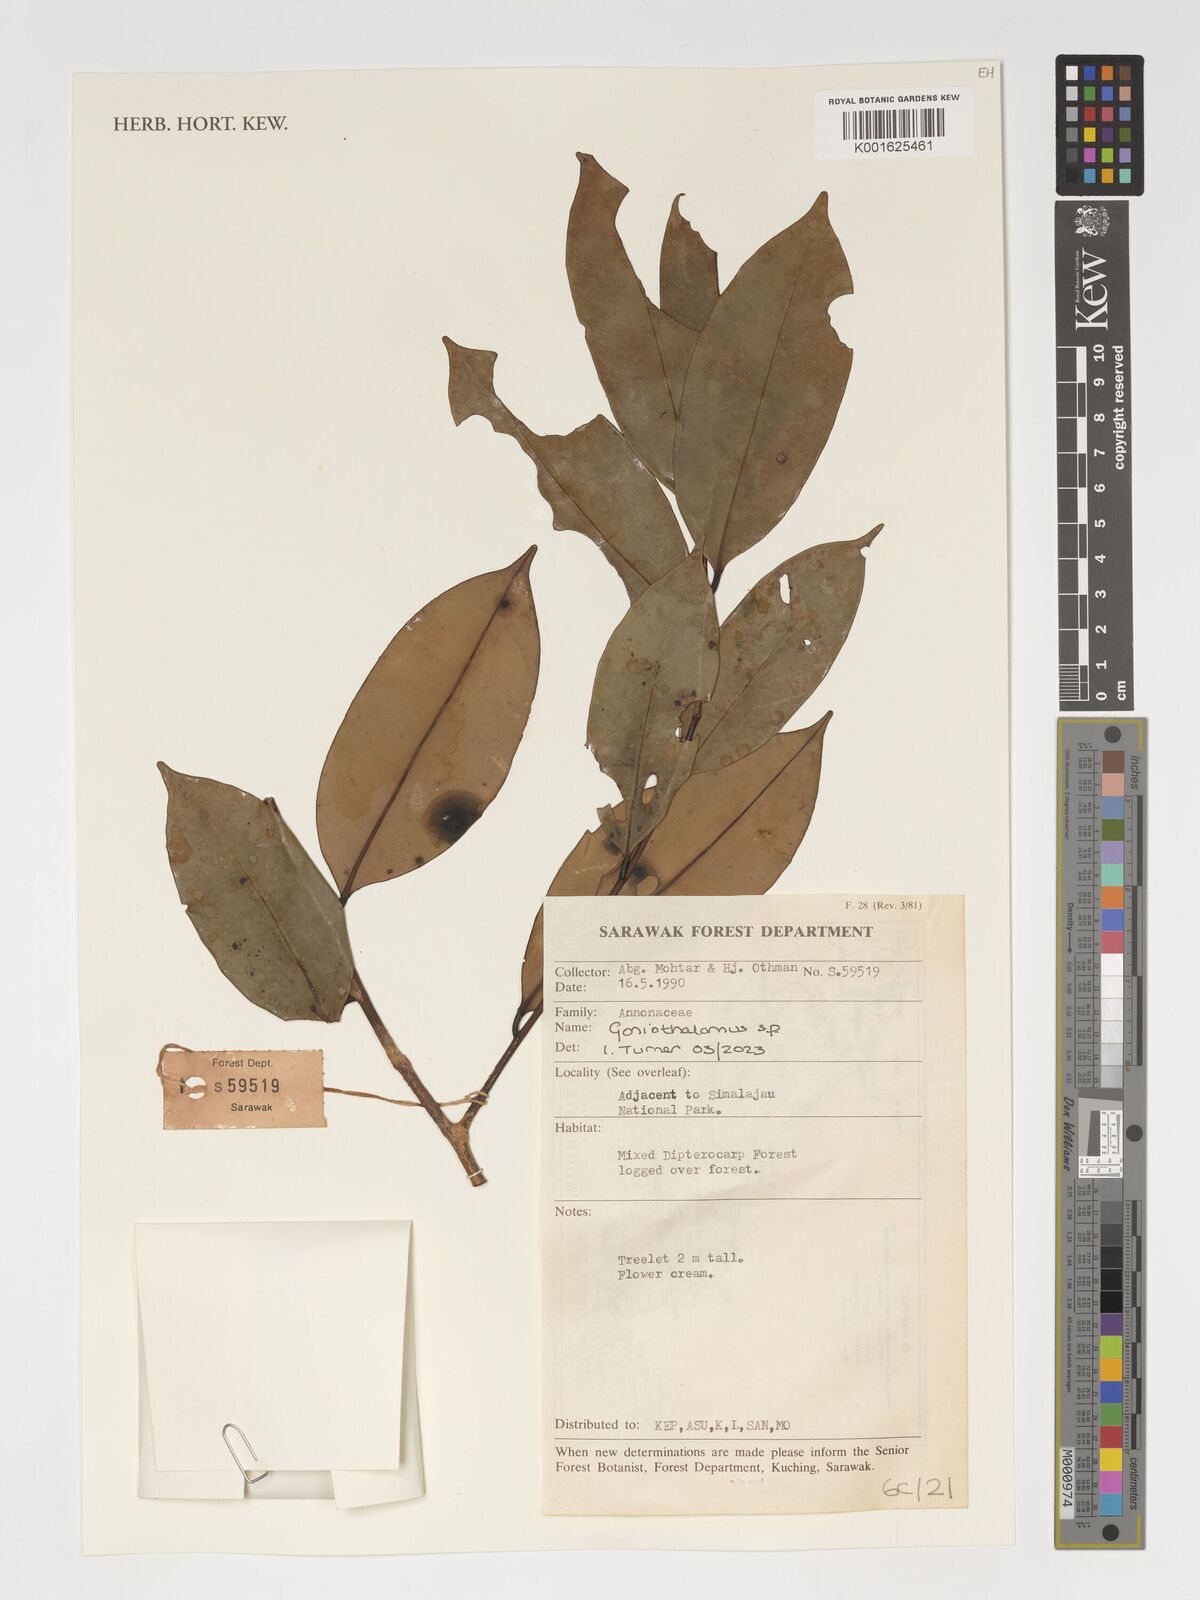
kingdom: Plantae
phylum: Tracheophyta
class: Magnoliopsida
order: Magnoliales
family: Annonaceae
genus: Goniothalamus
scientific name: Goniothalamus
